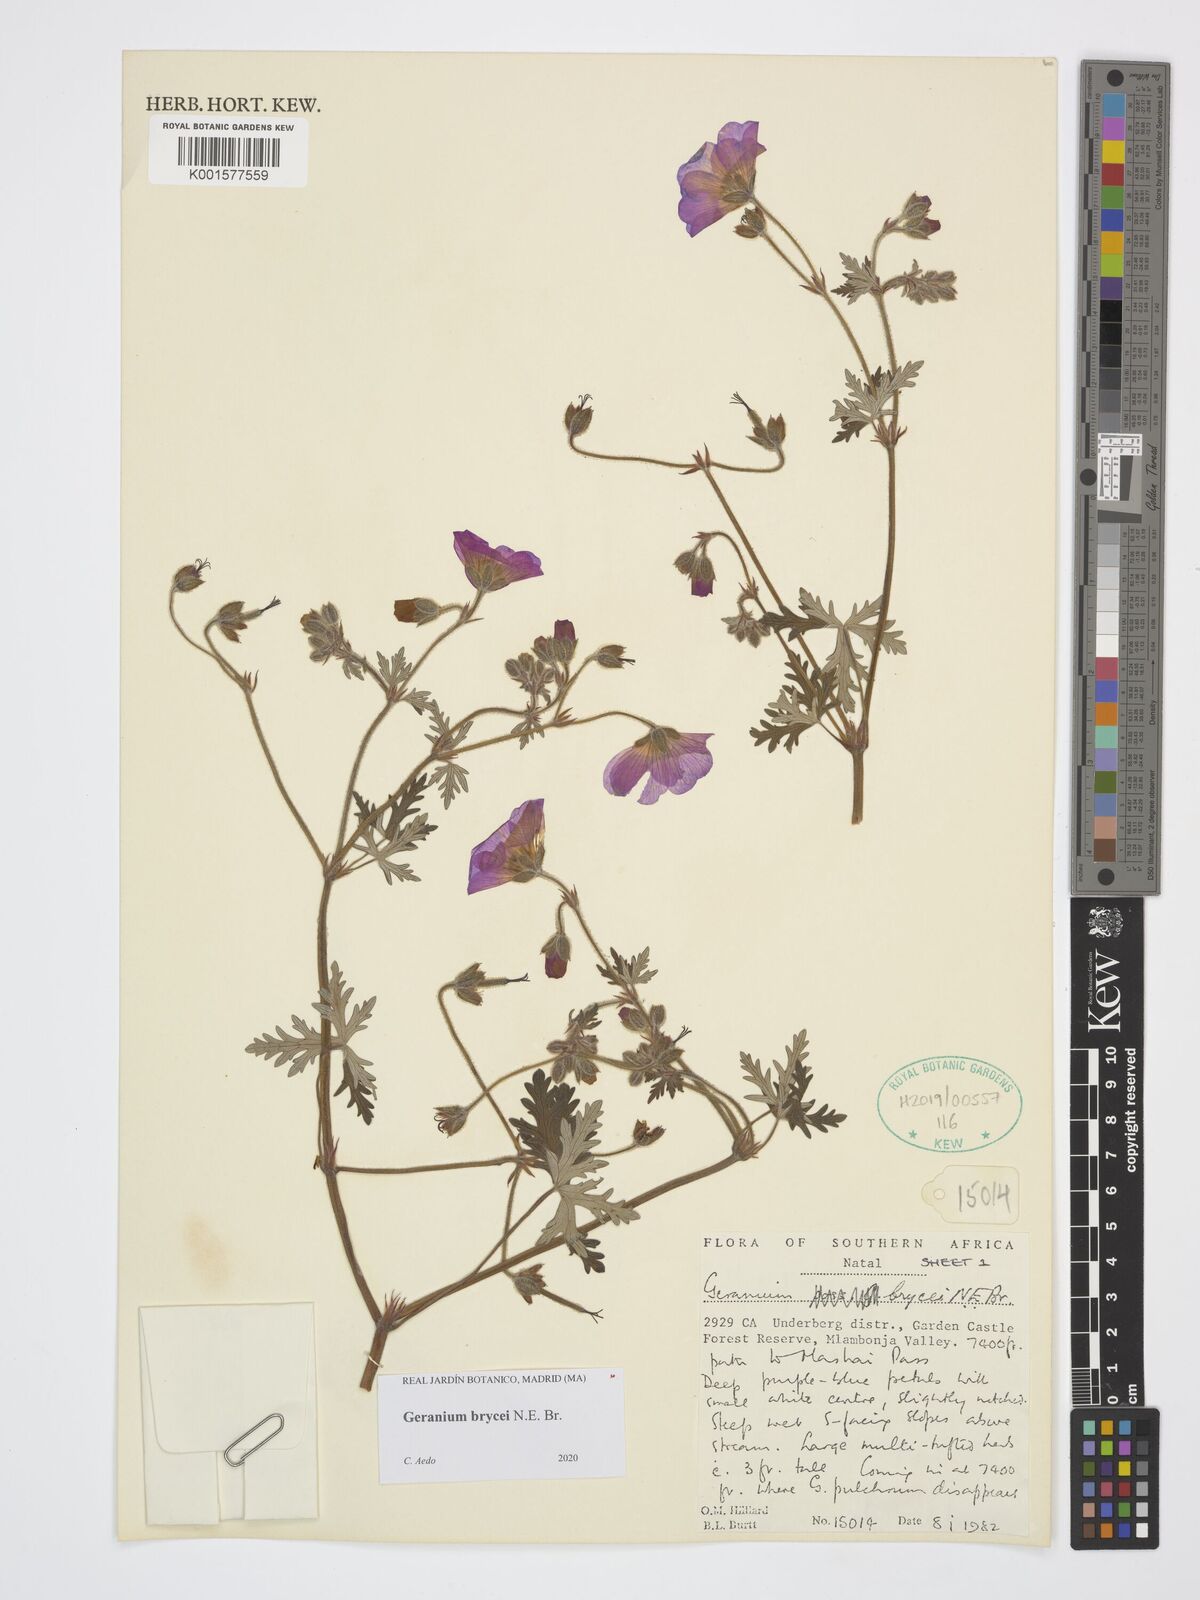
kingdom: Plantae
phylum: Tracheophyta
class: Magnoliopsida
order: Geraniales
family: Geraniaceae
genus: Geranium
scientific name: Geranium brycei
